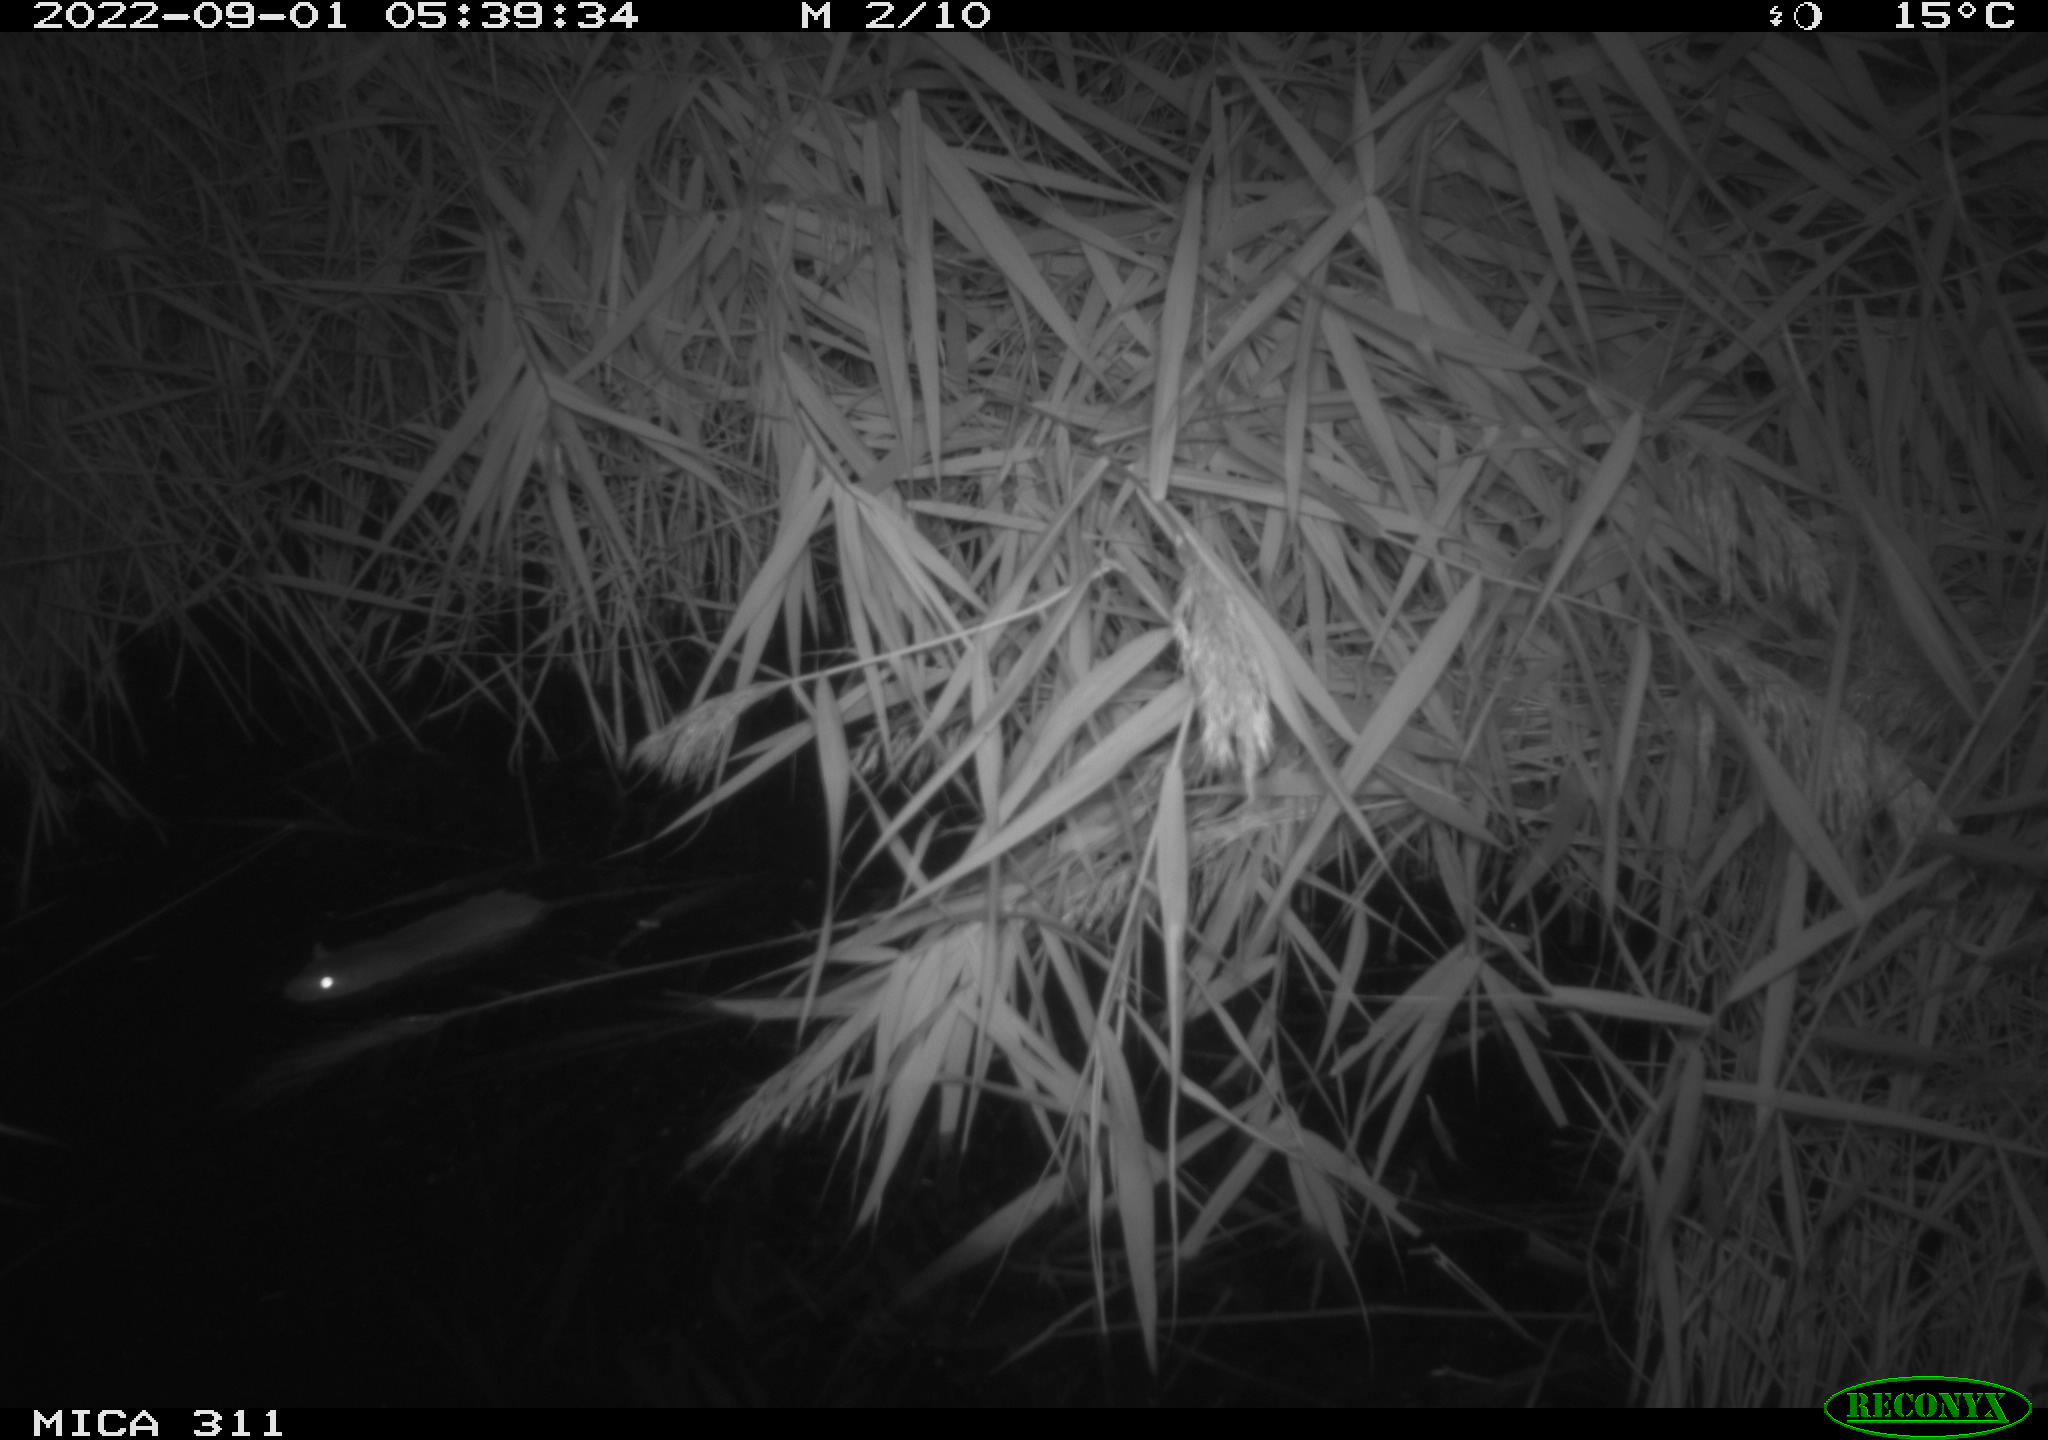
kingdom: Animalia
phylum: Chordata
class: Mammalia
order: Rodentia
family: Muridae
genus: Rattus
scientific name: Rattus norvegicus
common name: Brown rat
